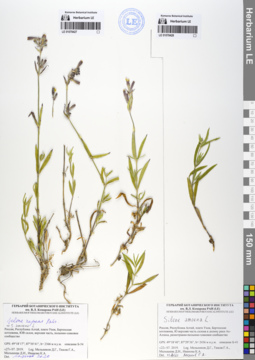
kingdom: Plantae
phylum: Tracheophyta
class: Magnoliopsida
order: Caryophyllales
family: Caryophyllaceae
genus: Silene
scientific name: Silene amoena
